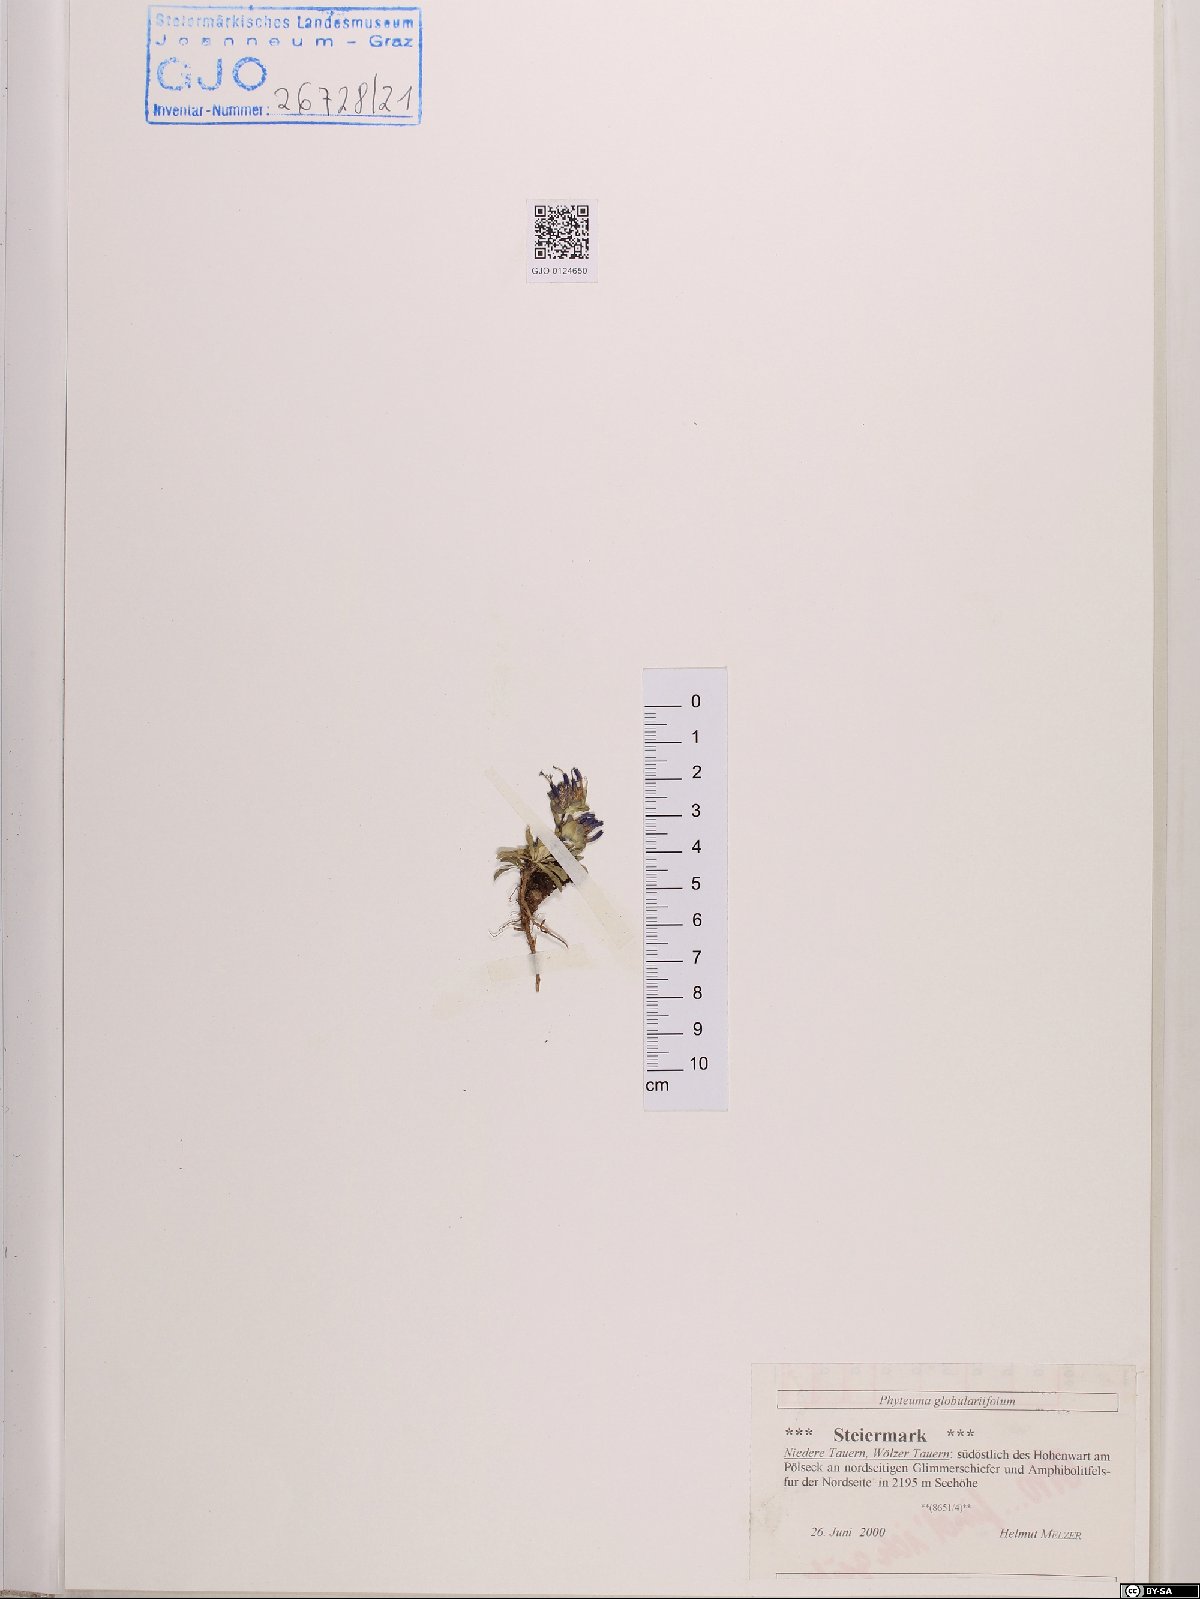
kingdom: Plantae
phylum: Tracheophyta
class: Magnoliopsida
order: Asterales
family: Campanulaceae
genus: Phyteuma
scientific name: Phyteuma globulariifolium
